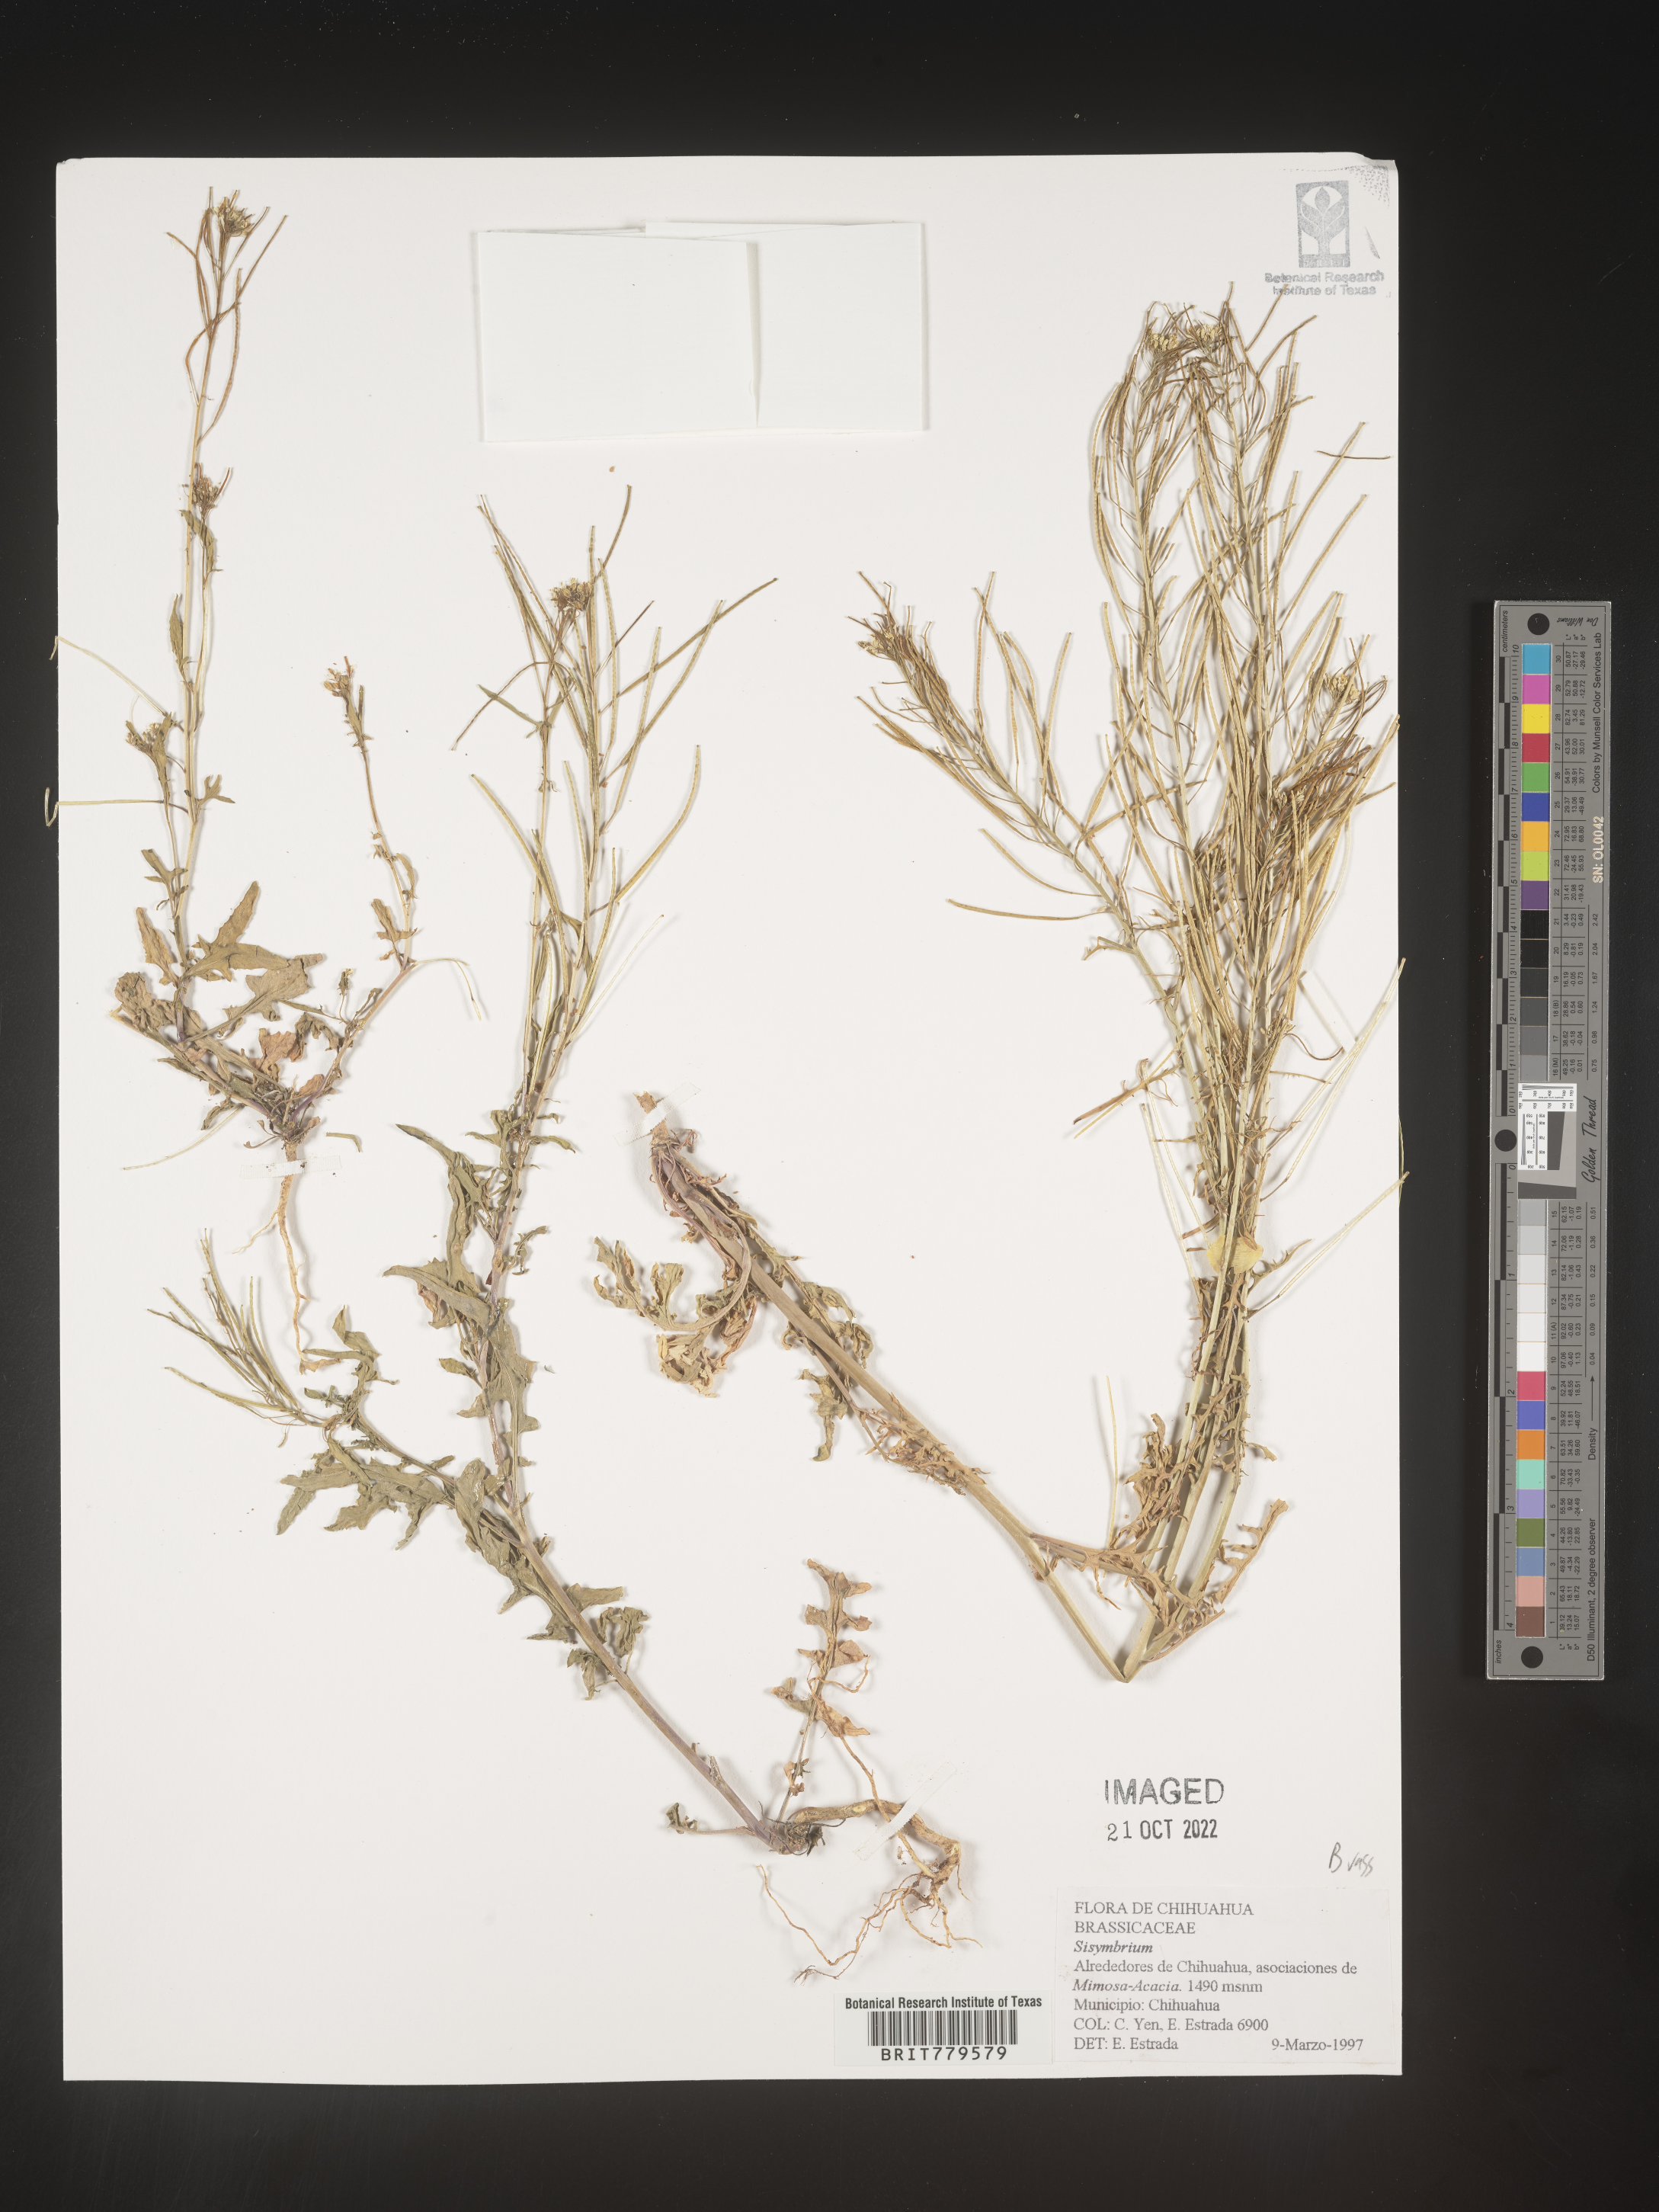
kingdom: Plantae
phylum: Tracheophyta
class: Magnoliopsida
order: Brassicales
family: Brassicaceae
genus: Sisymbrium
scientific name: Sisymbrium
